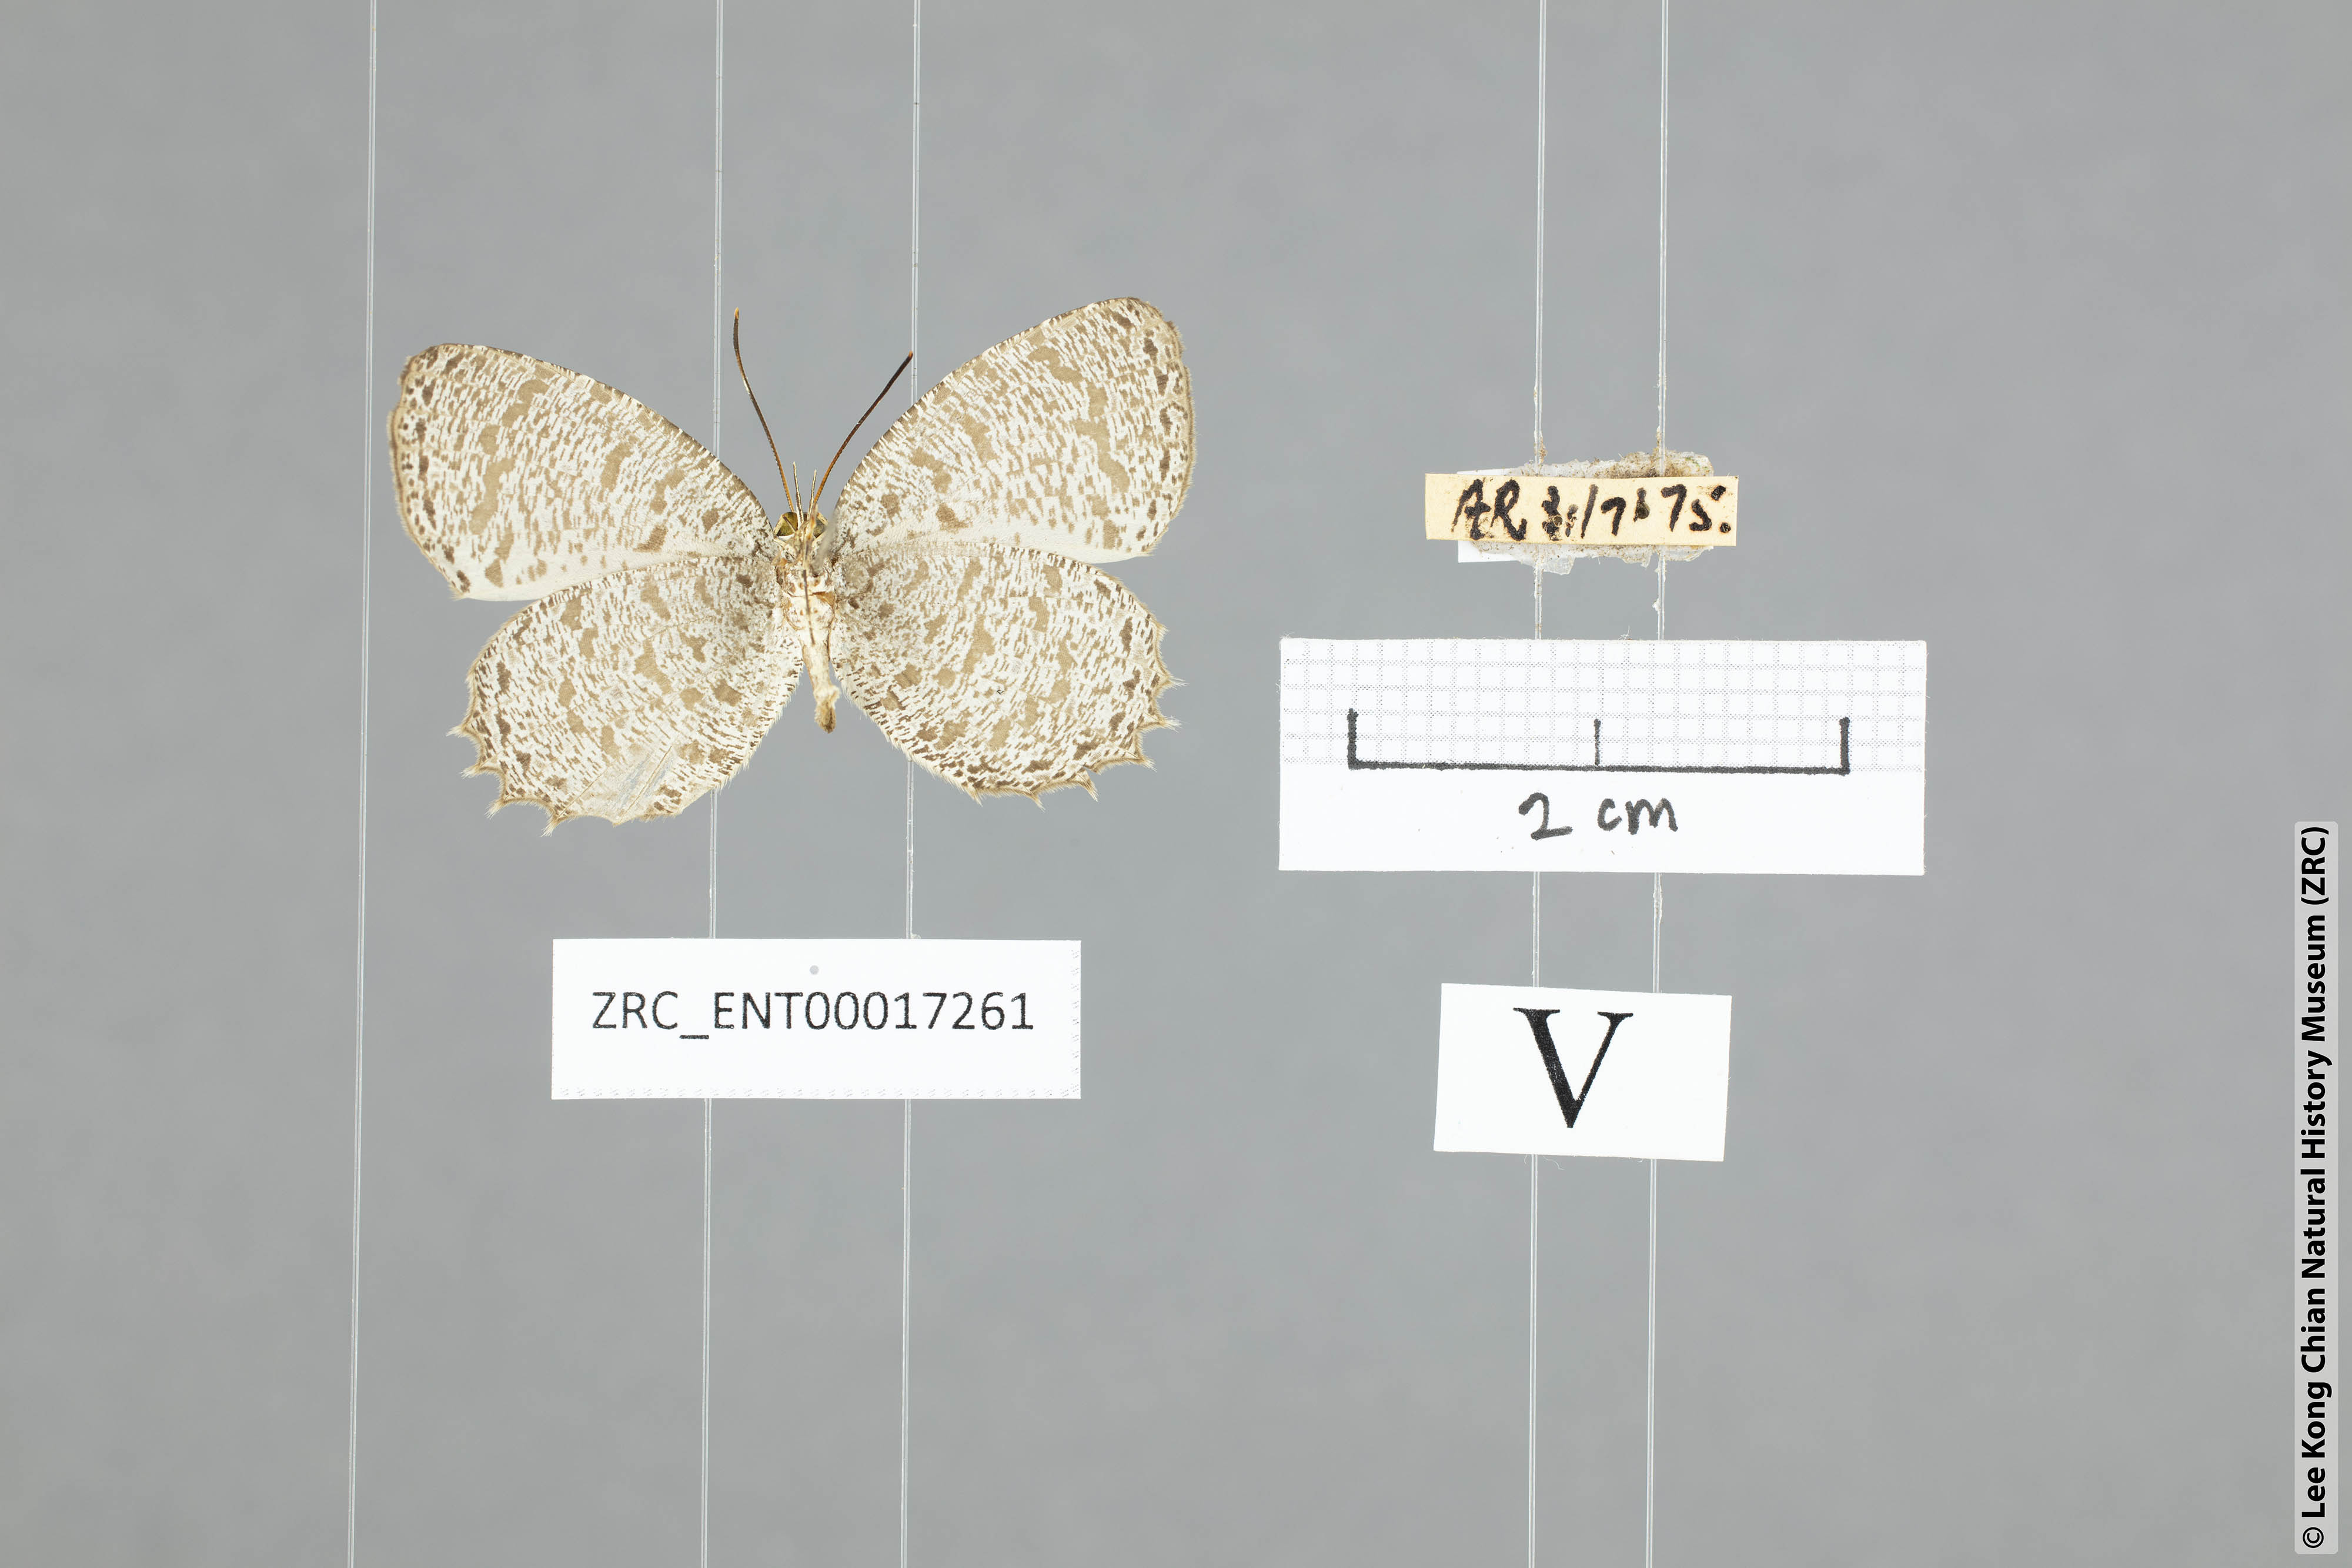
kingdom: Animalia
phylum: Arthropoda
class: Insecta
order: Lepidoptera
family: Lycaenidae
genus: Allotinus
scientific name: Allotinus leogoron
